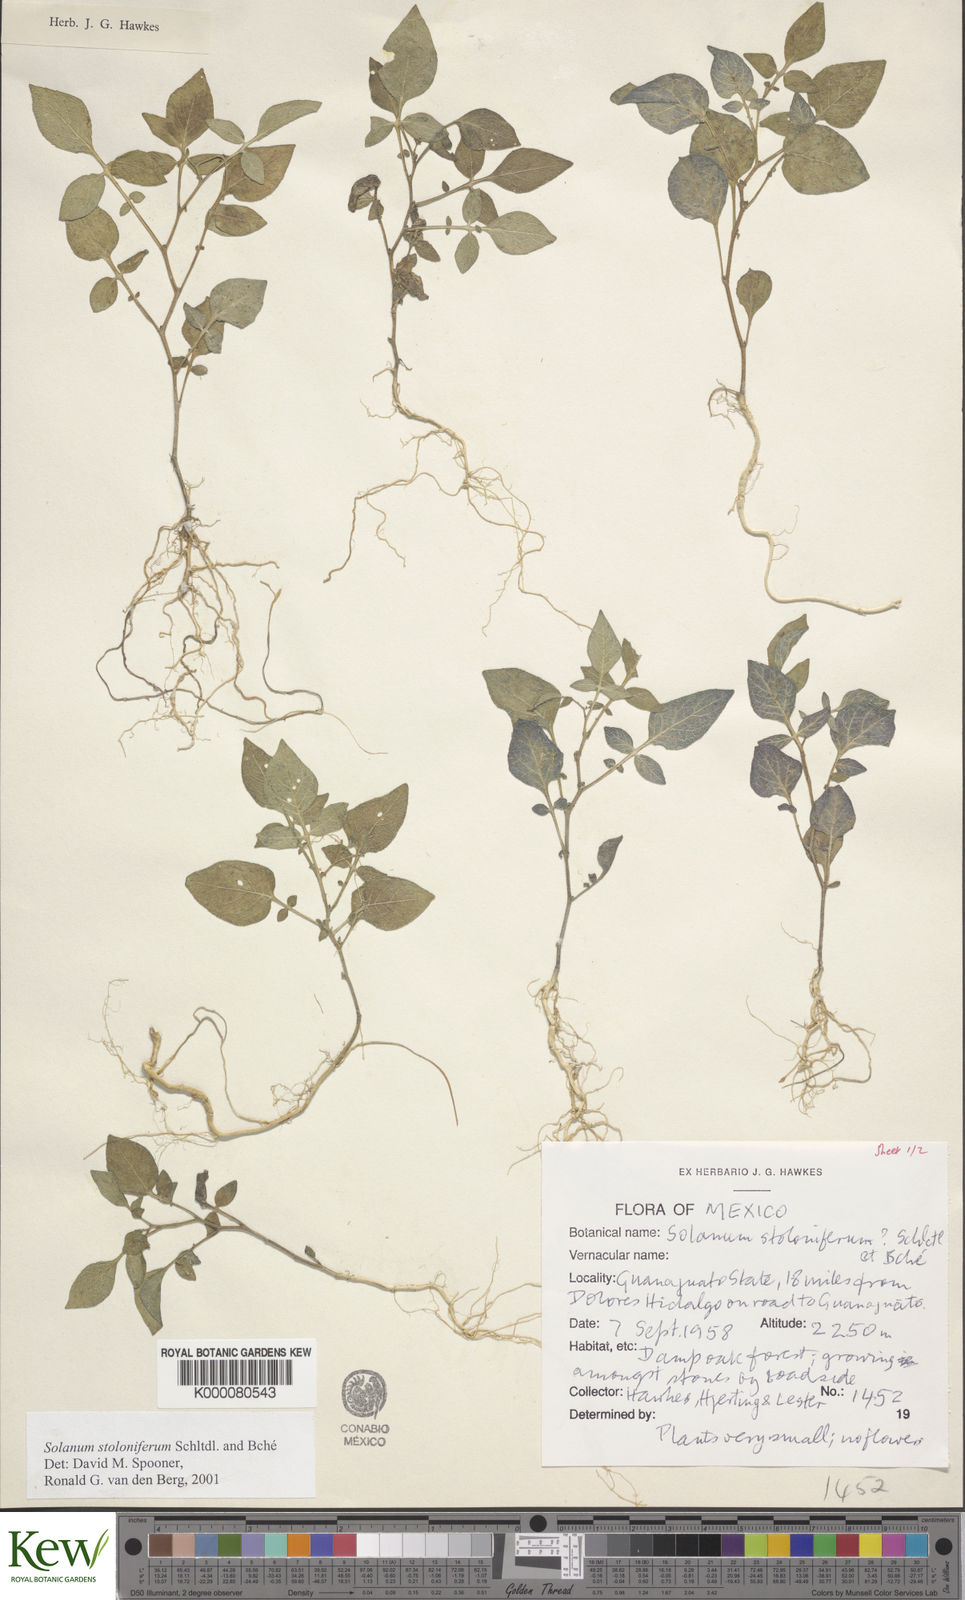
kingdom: Plantae
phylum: Tracheophyta
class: Magnoliopsida
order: Solanales
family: Solanaceae
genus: Solanum
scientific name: Solanum stoloniferum
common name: Fendler's nighshade
